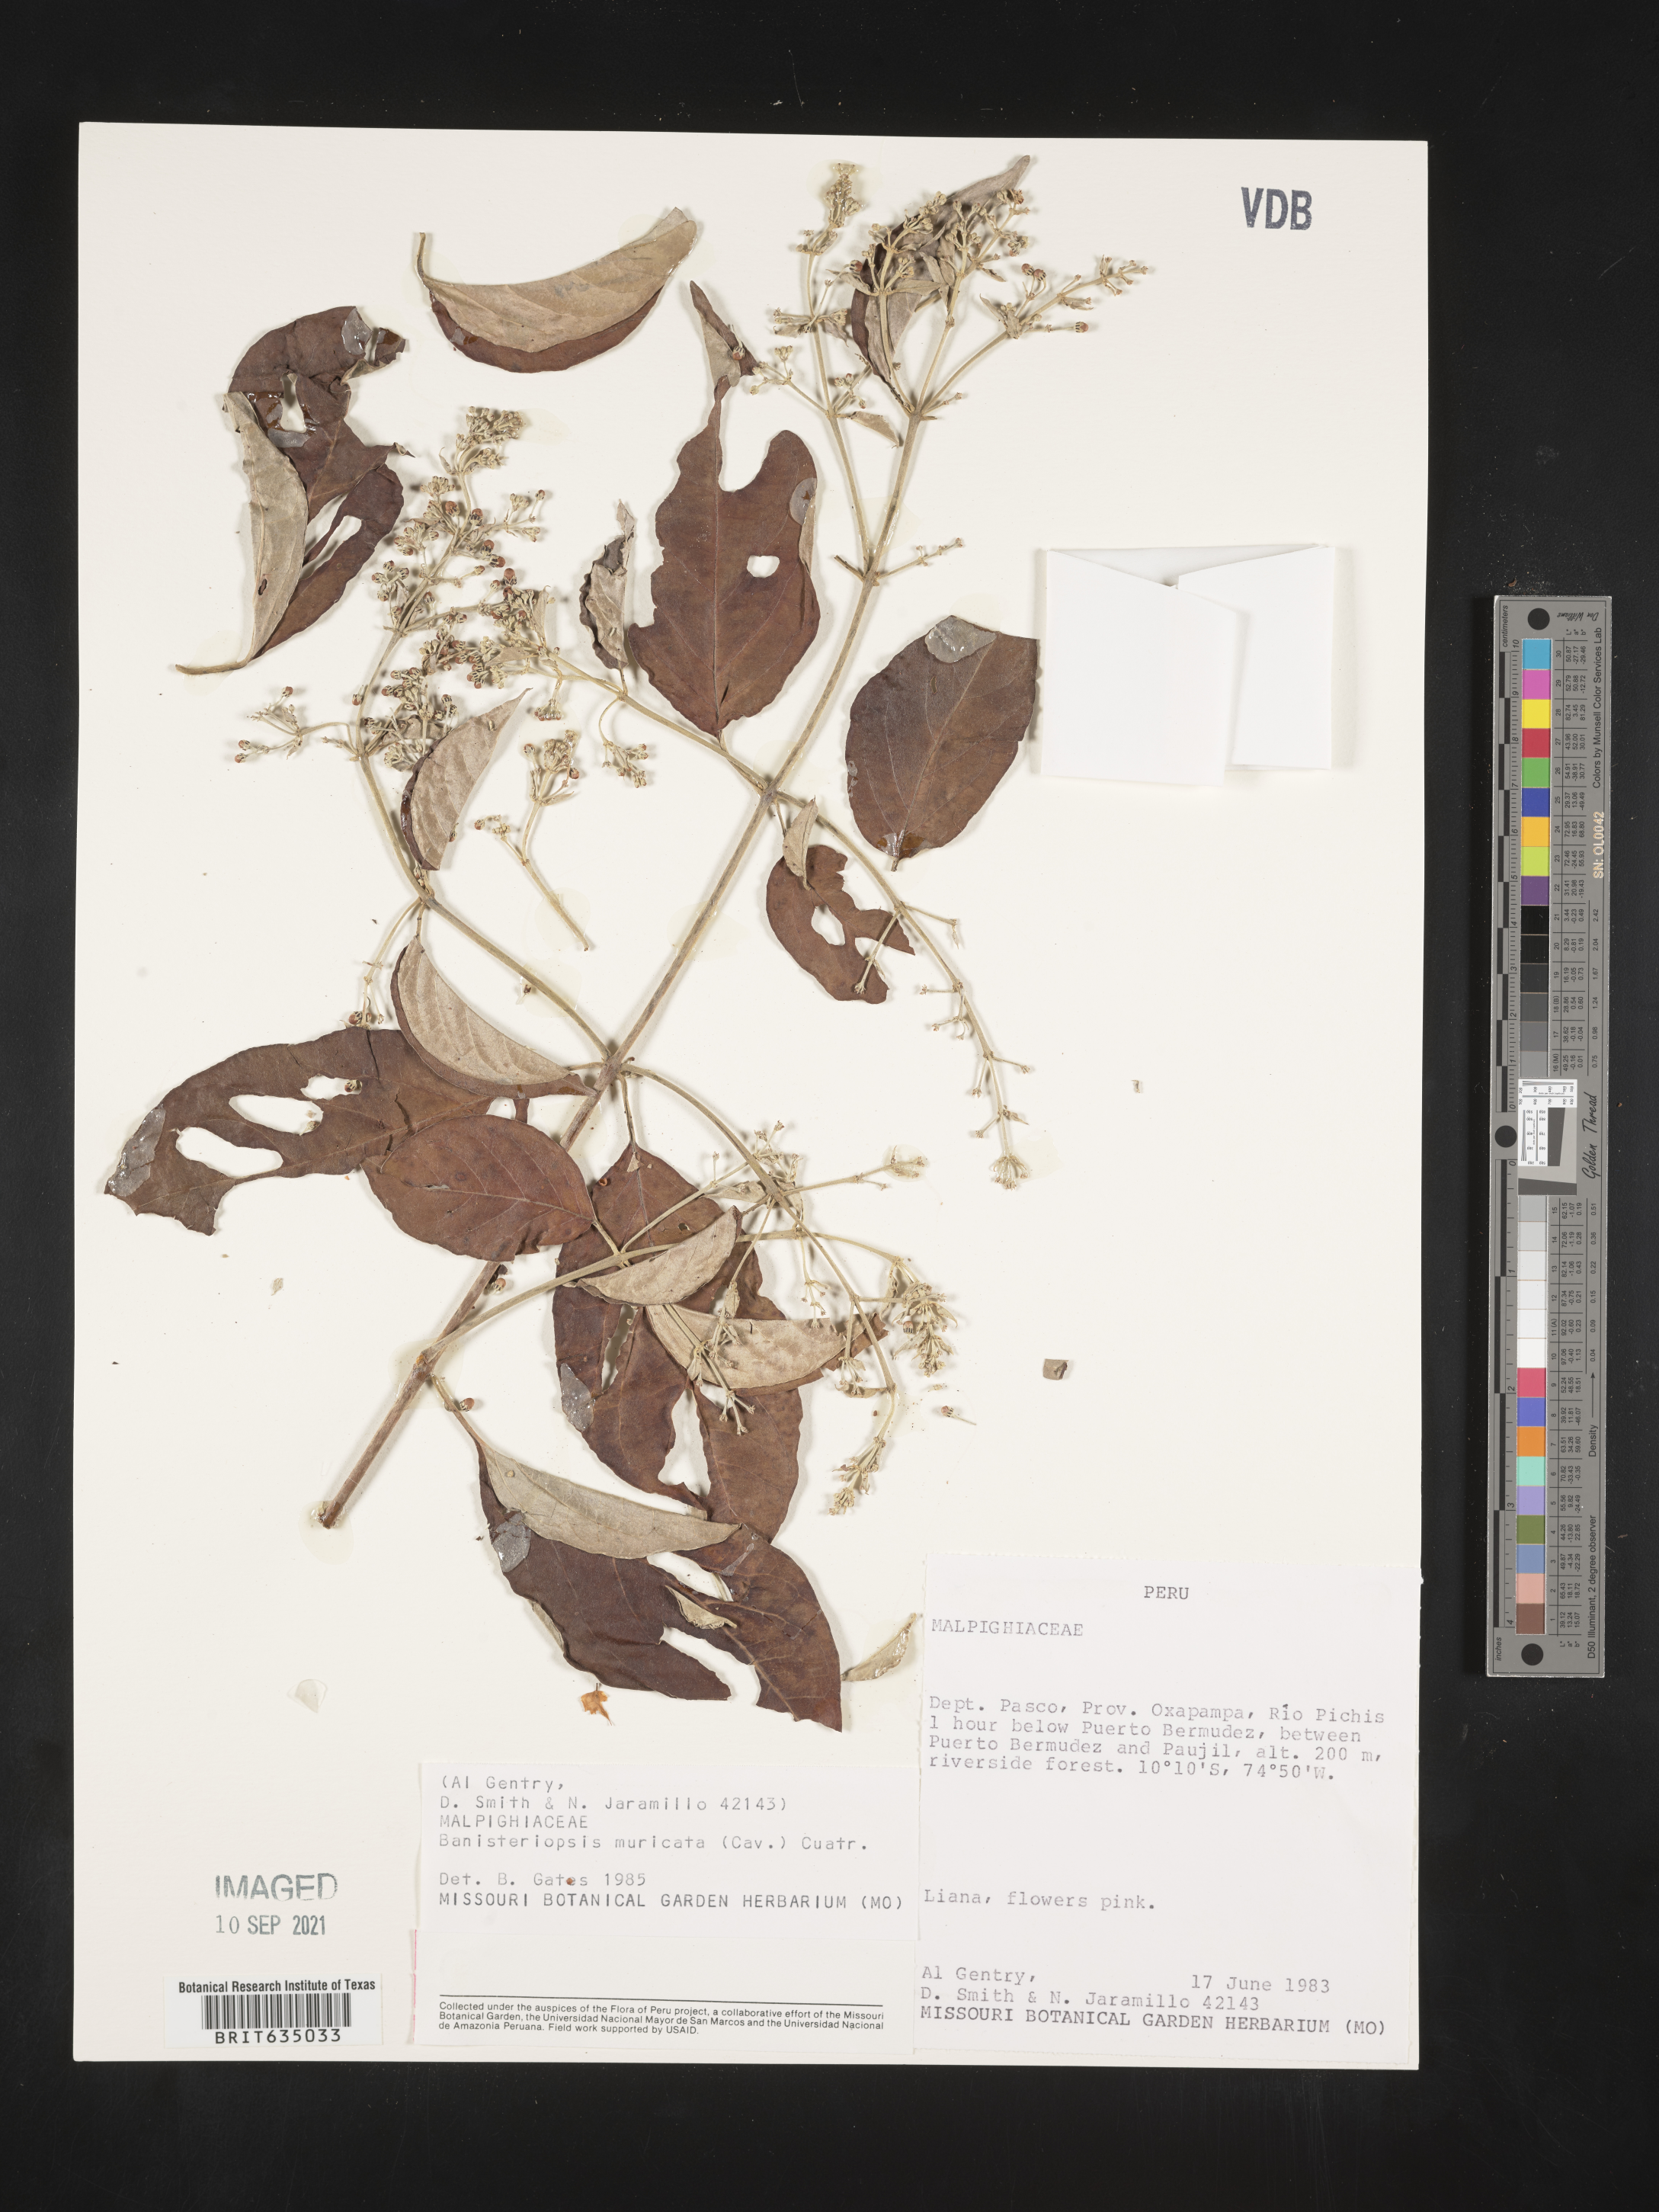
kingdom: Plantae
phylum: Tracheophyta
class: Magnoliopsida
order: Malpighiales
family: Malpighiaceae
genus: Banisteriopsis
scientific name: Banisteriopsis
